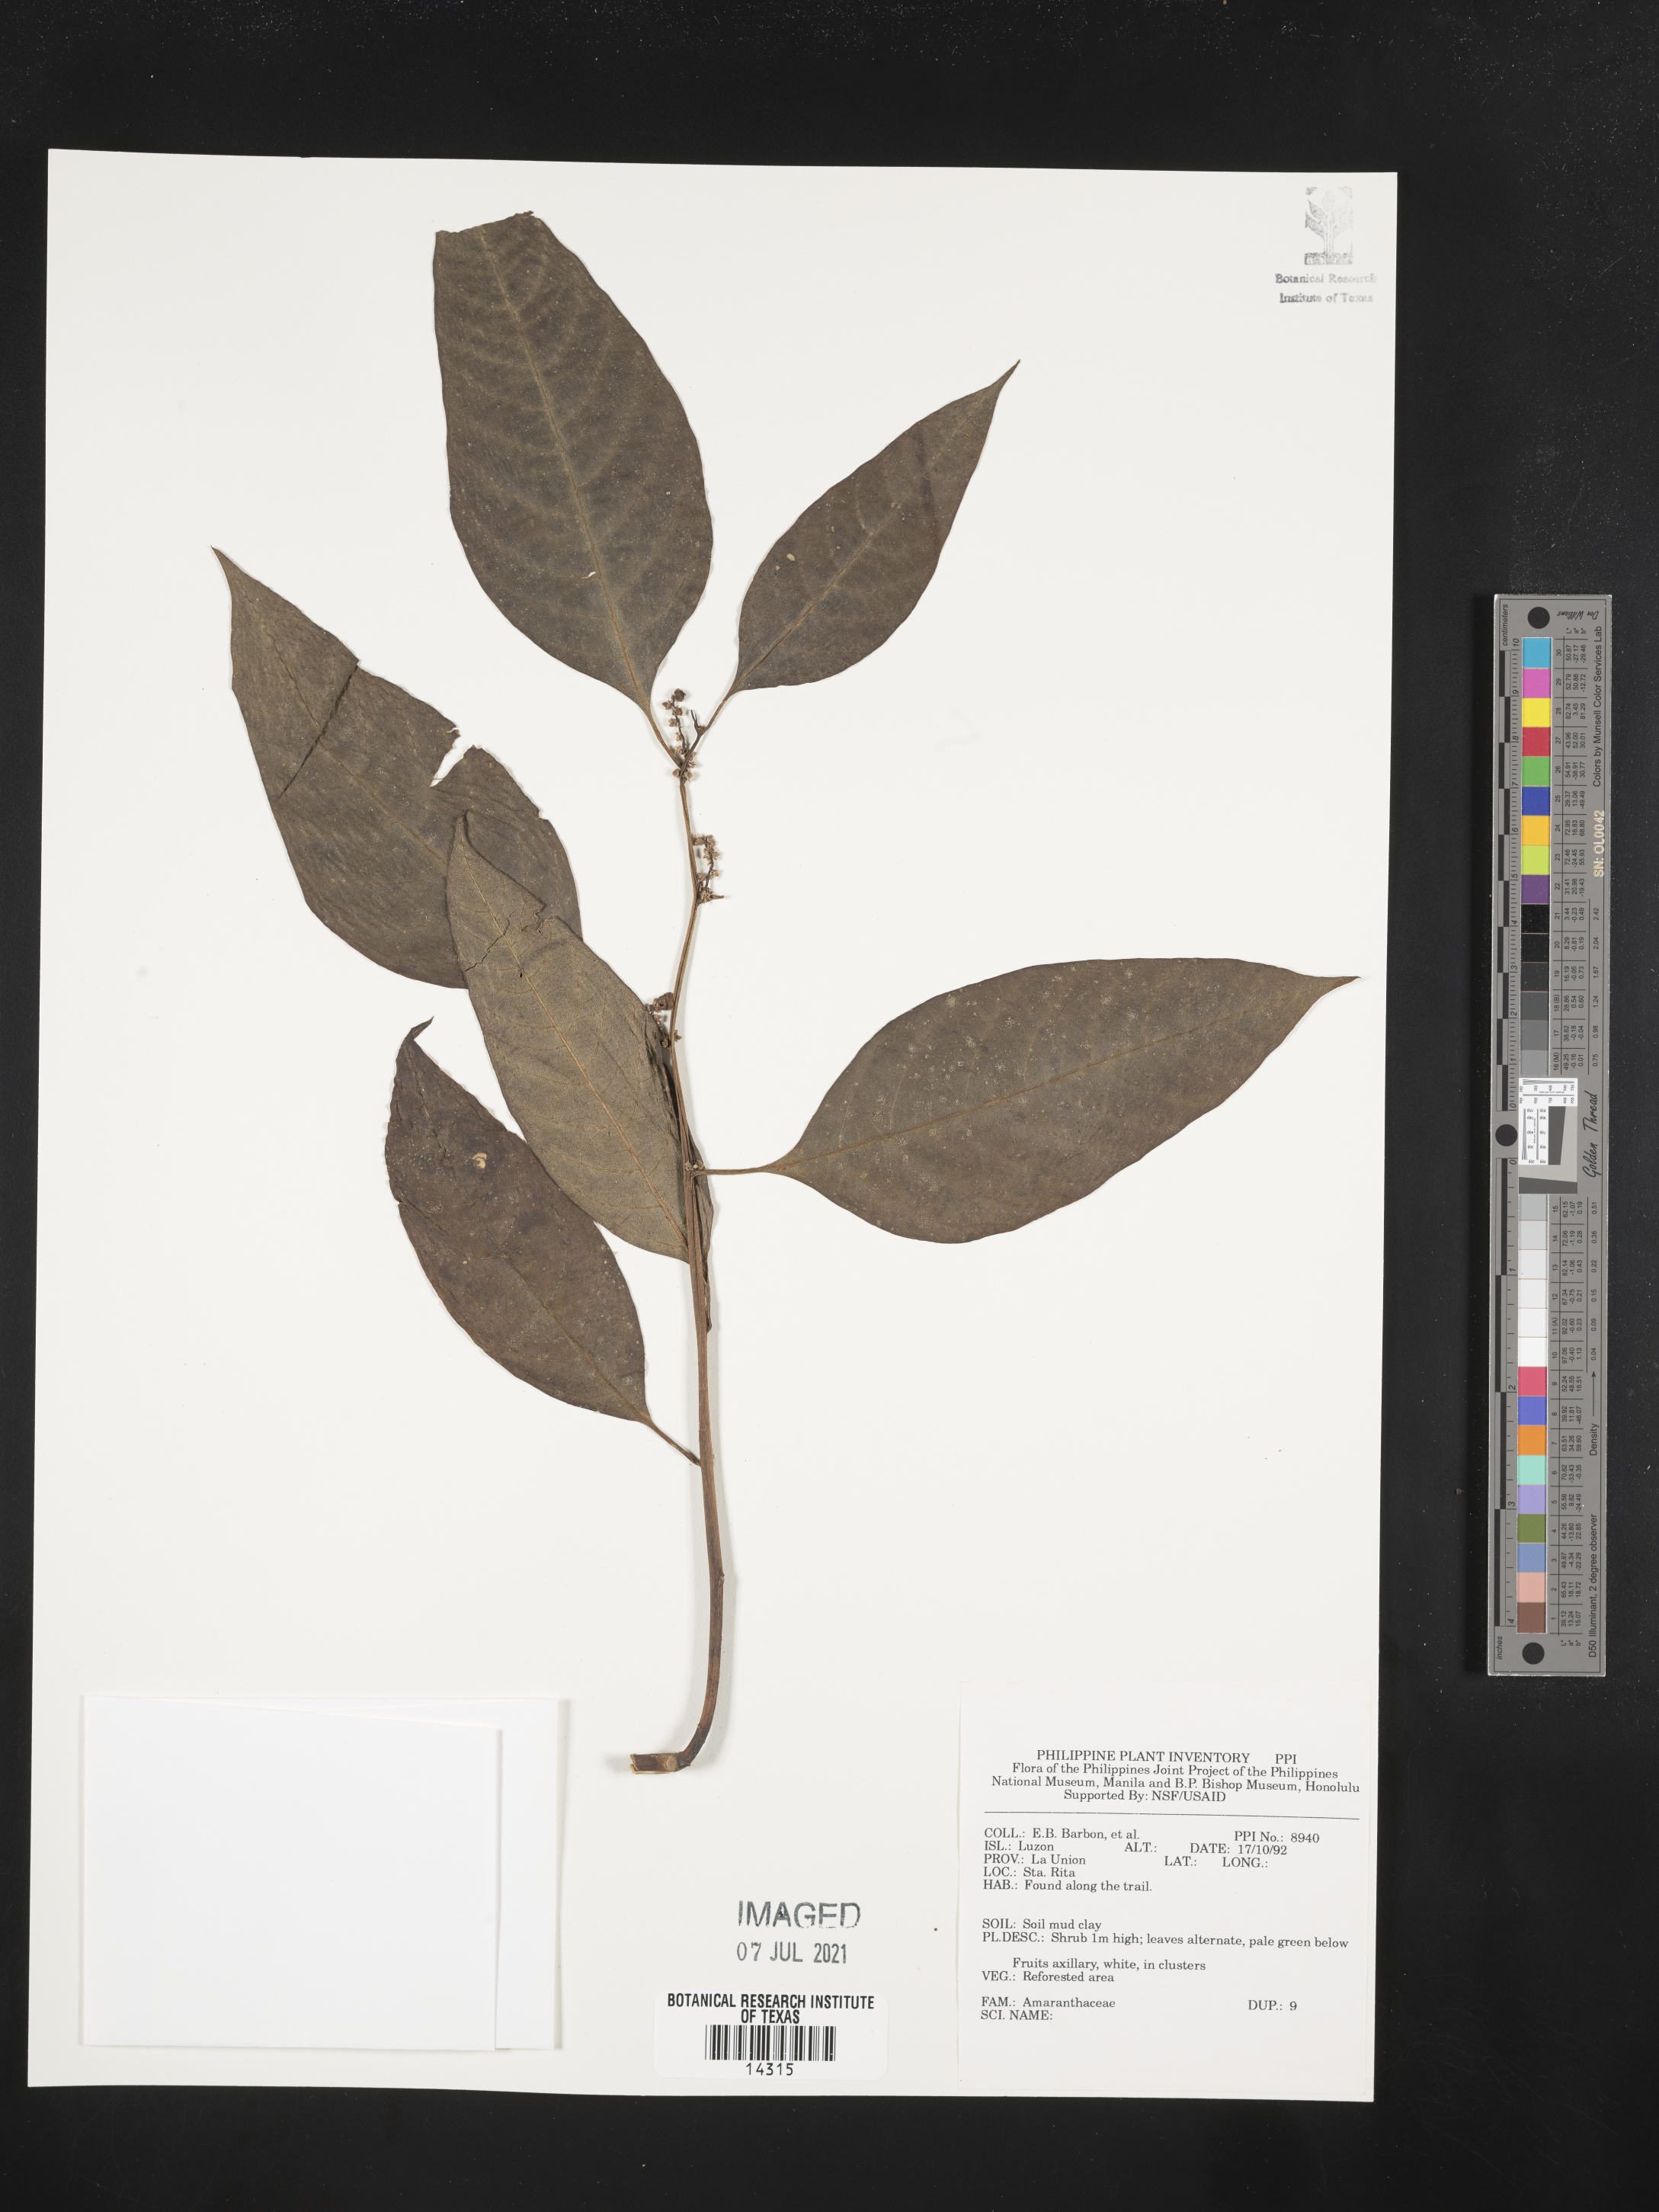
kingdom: Plantae
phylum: Tracheophyta
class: Magnoliopsida
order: Caryophyllales
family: Amaranthaceae
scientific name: Amaranthaceae
